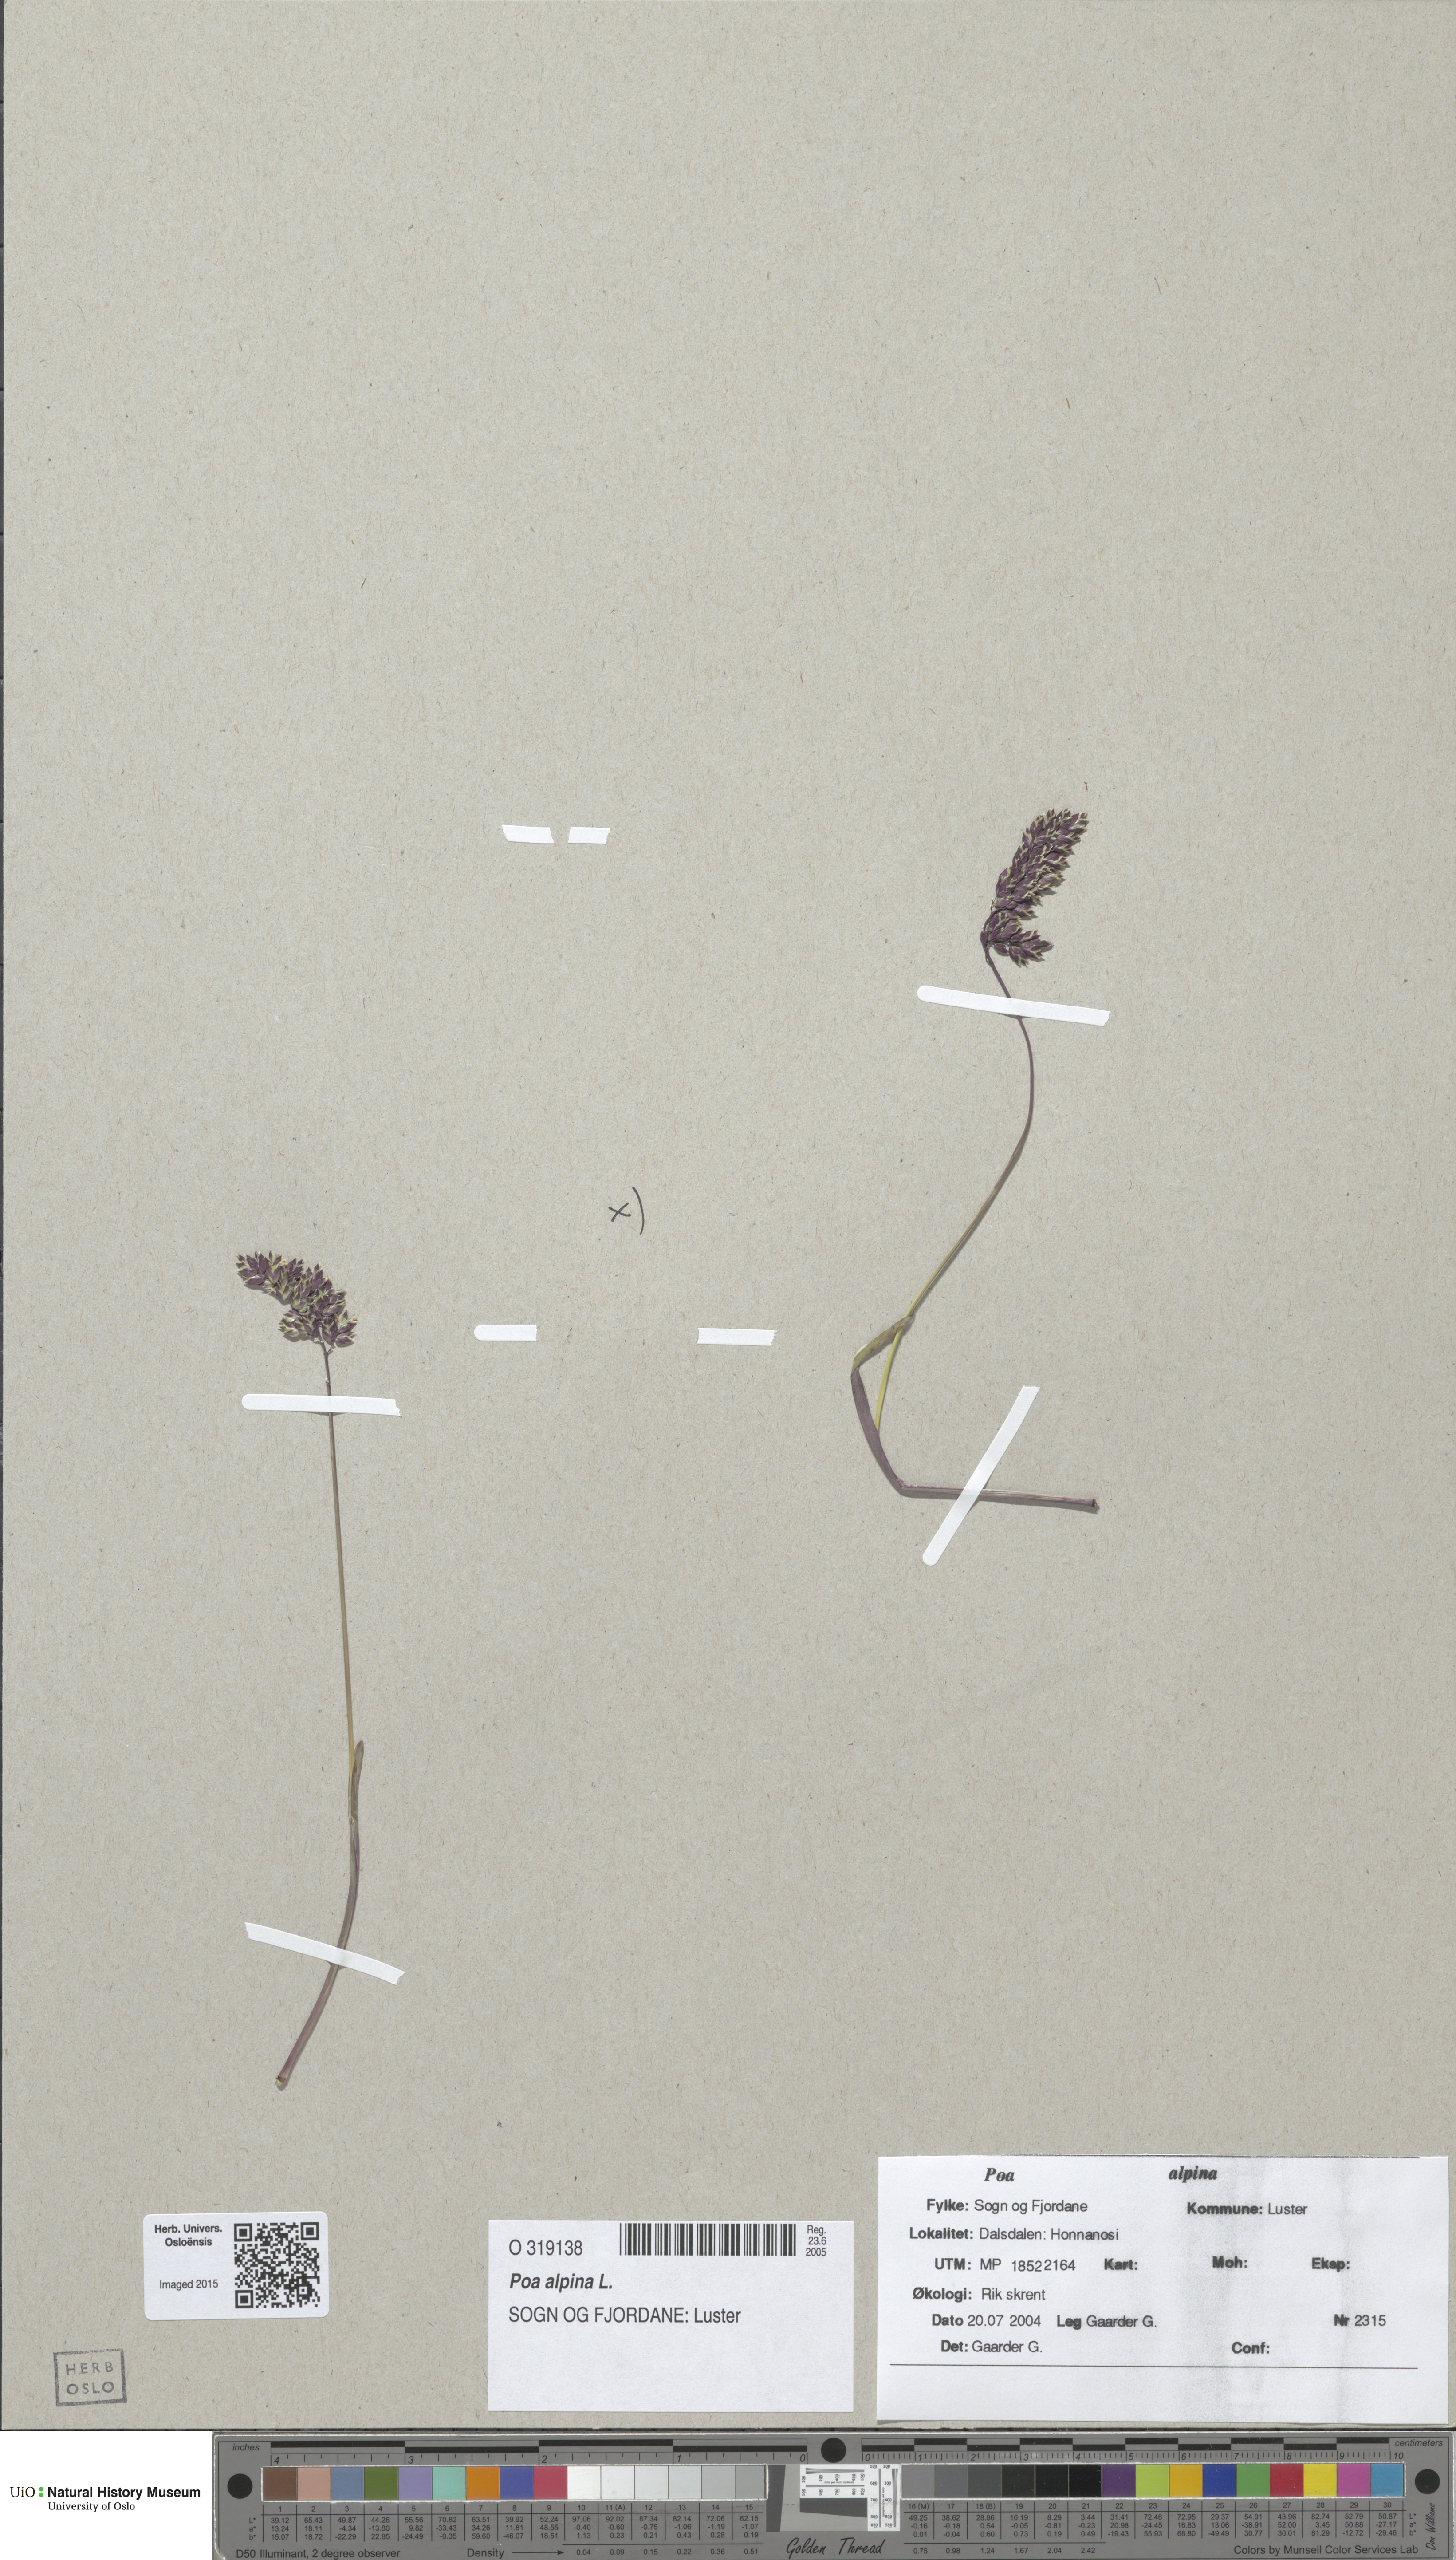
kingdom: Plantae
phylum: Tracheophyta
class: Liliopsida
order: Poales
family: Poaceae
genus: Poa
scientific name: Poa alpina
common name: Alpine bluegrass
